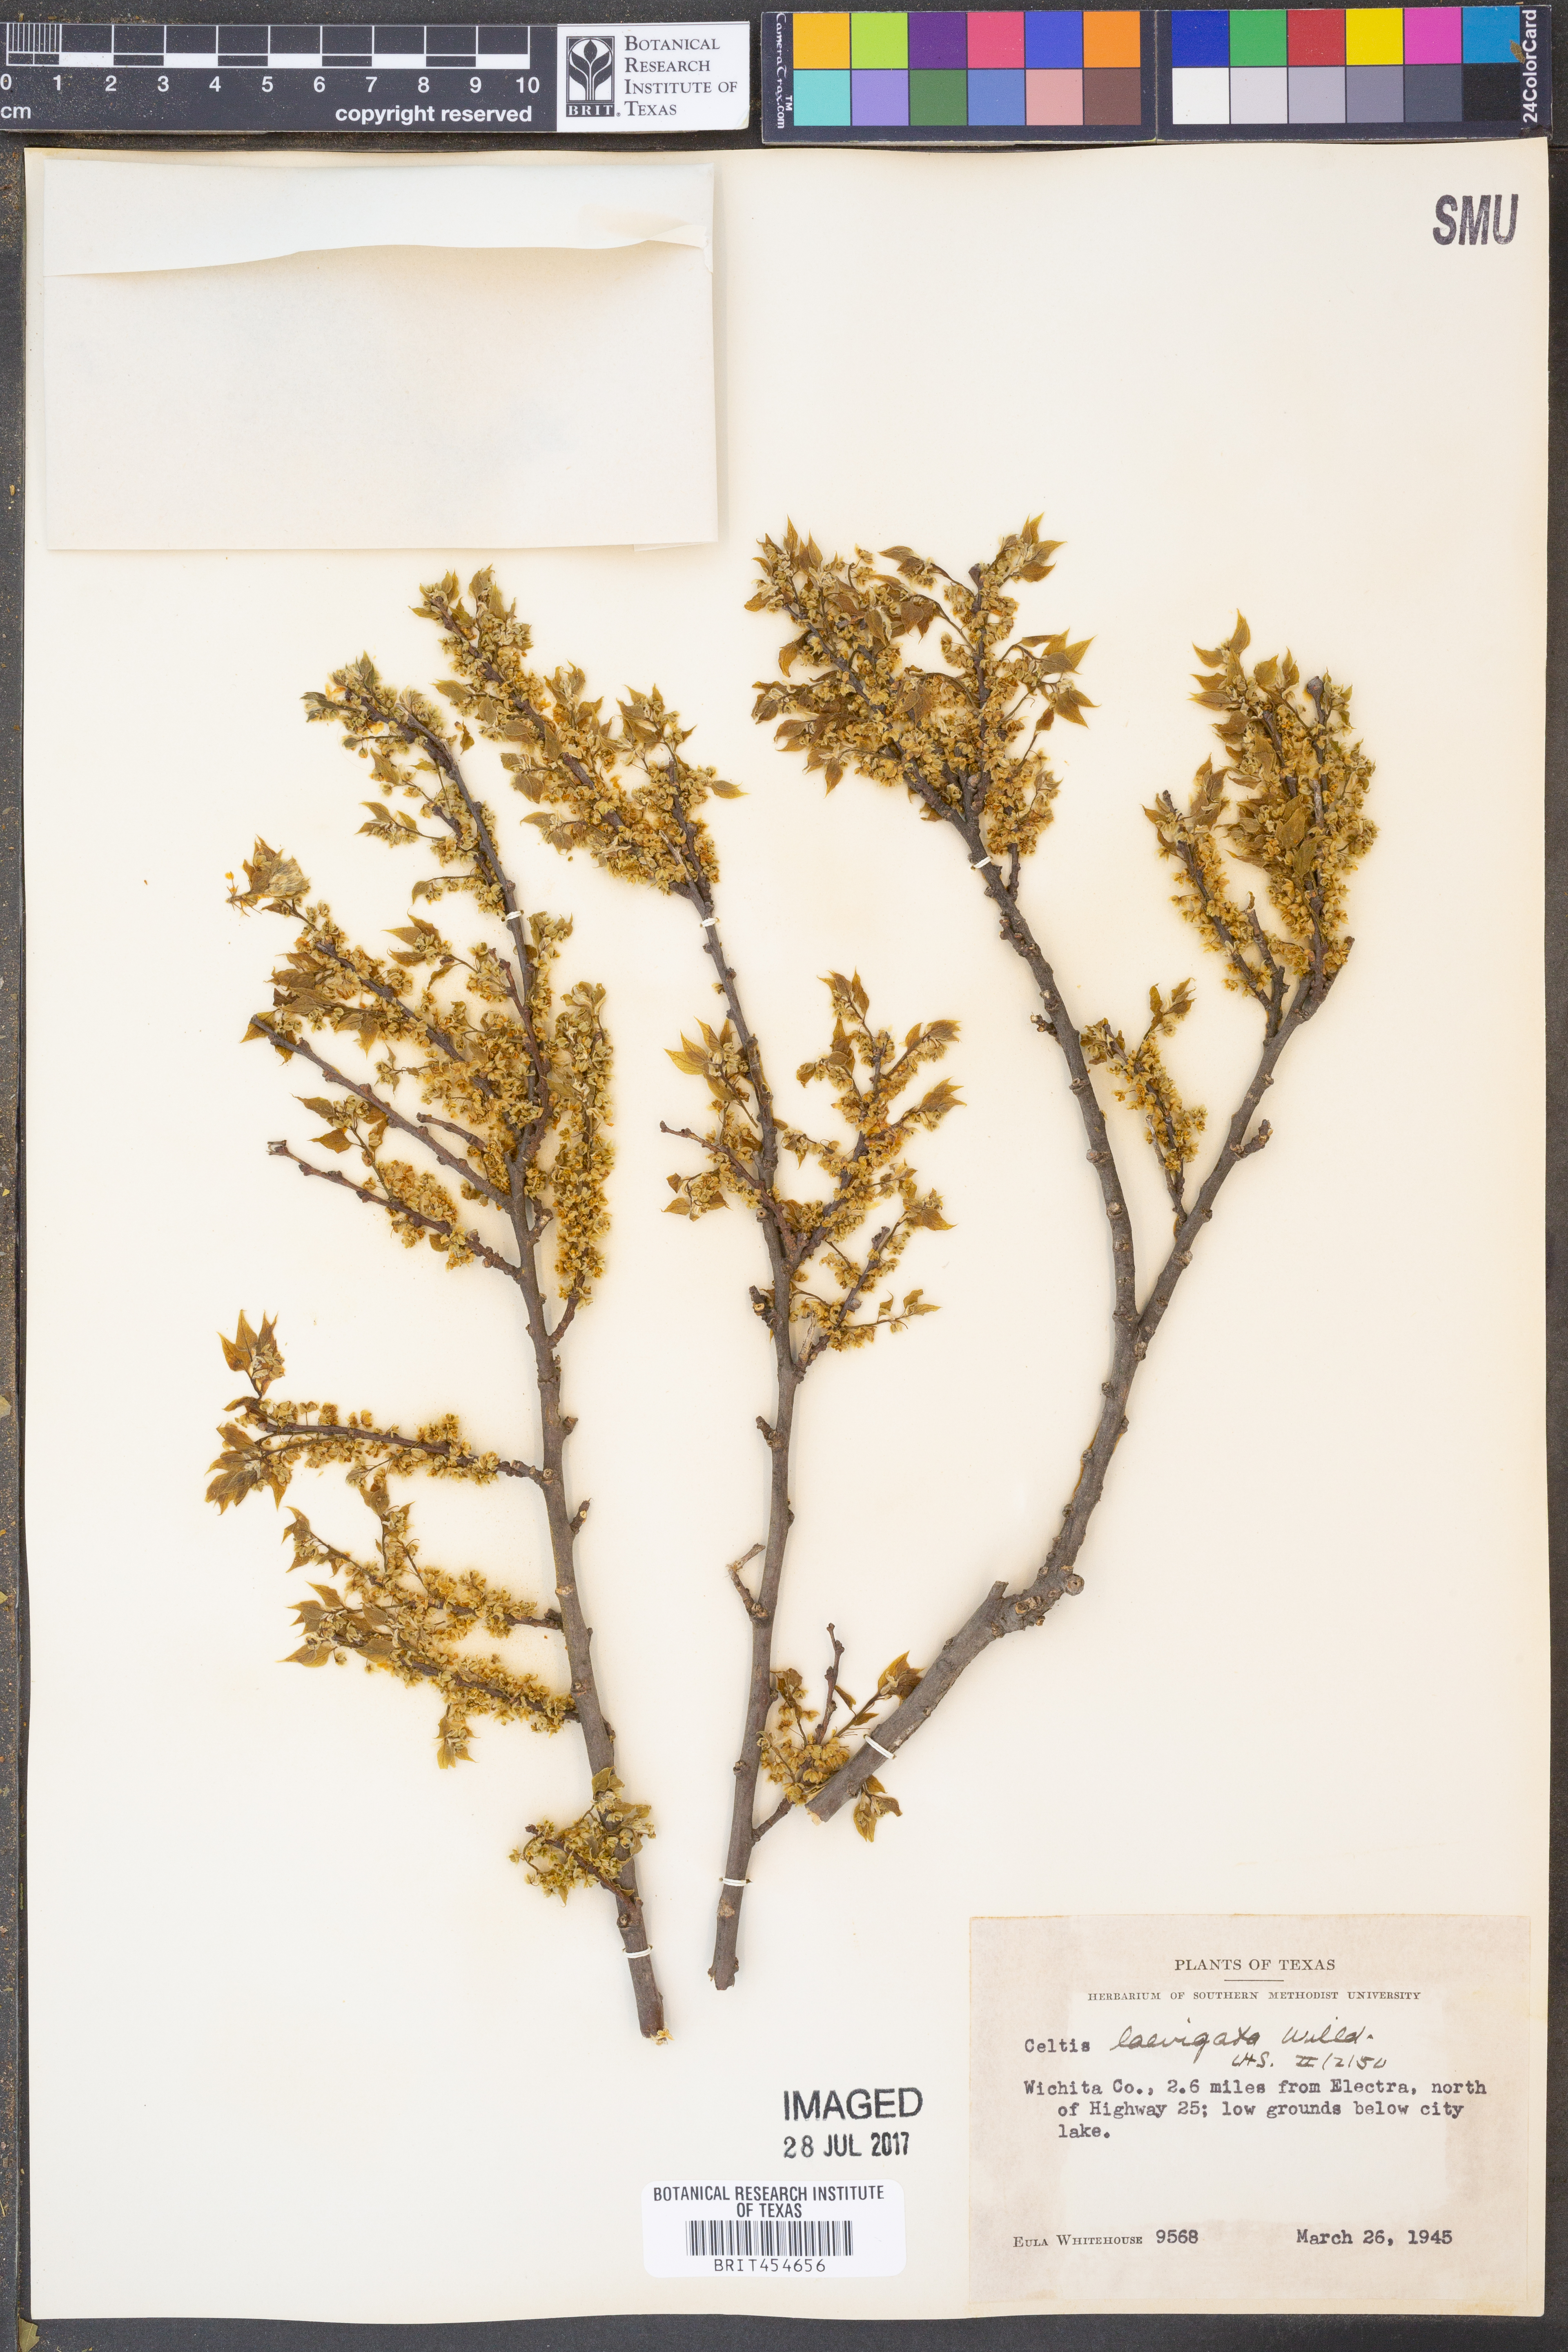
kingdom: Plantae
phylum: Tracheophyta
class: Magnoliopsida
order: Rosales
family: Cannabaceae
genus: Celtis
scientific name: Celtis laevigata
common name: Sugarberry
